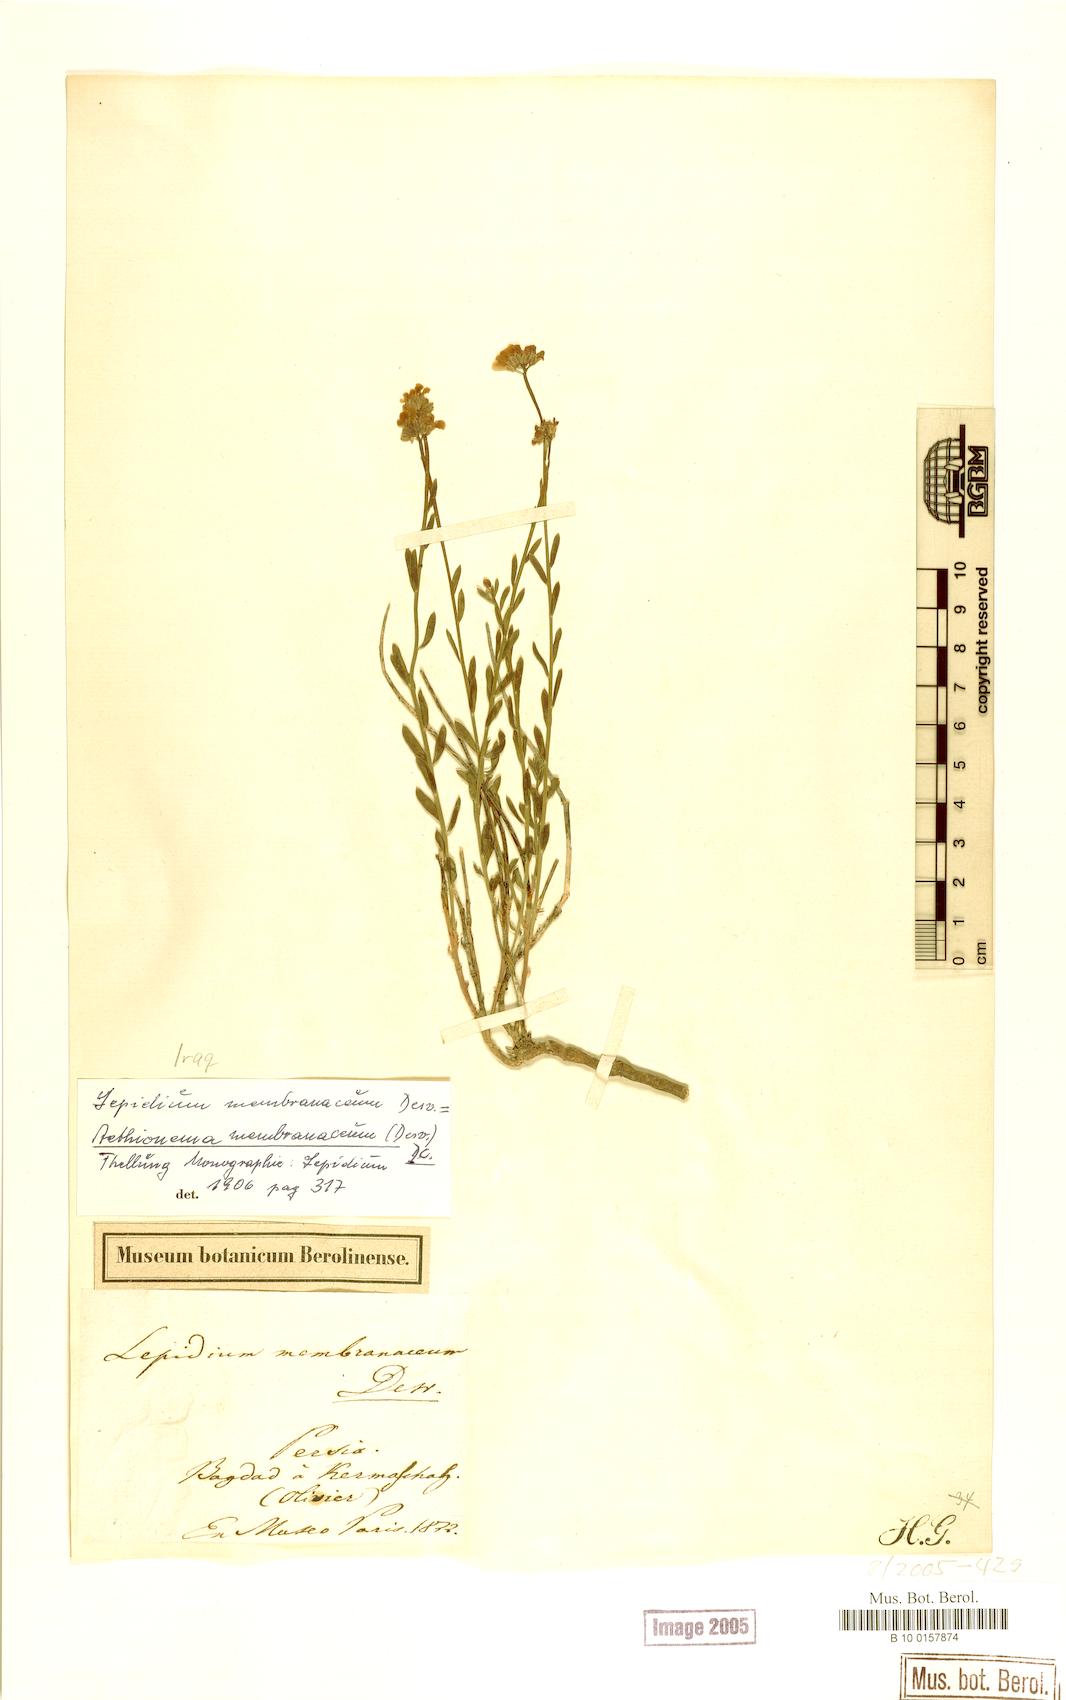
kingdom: Plantae
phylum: Tracheophyta
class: Magnoliopsida
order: Brassicales
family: Brassicaceae
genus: Aethionema
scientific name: Aethionema membranaceum
